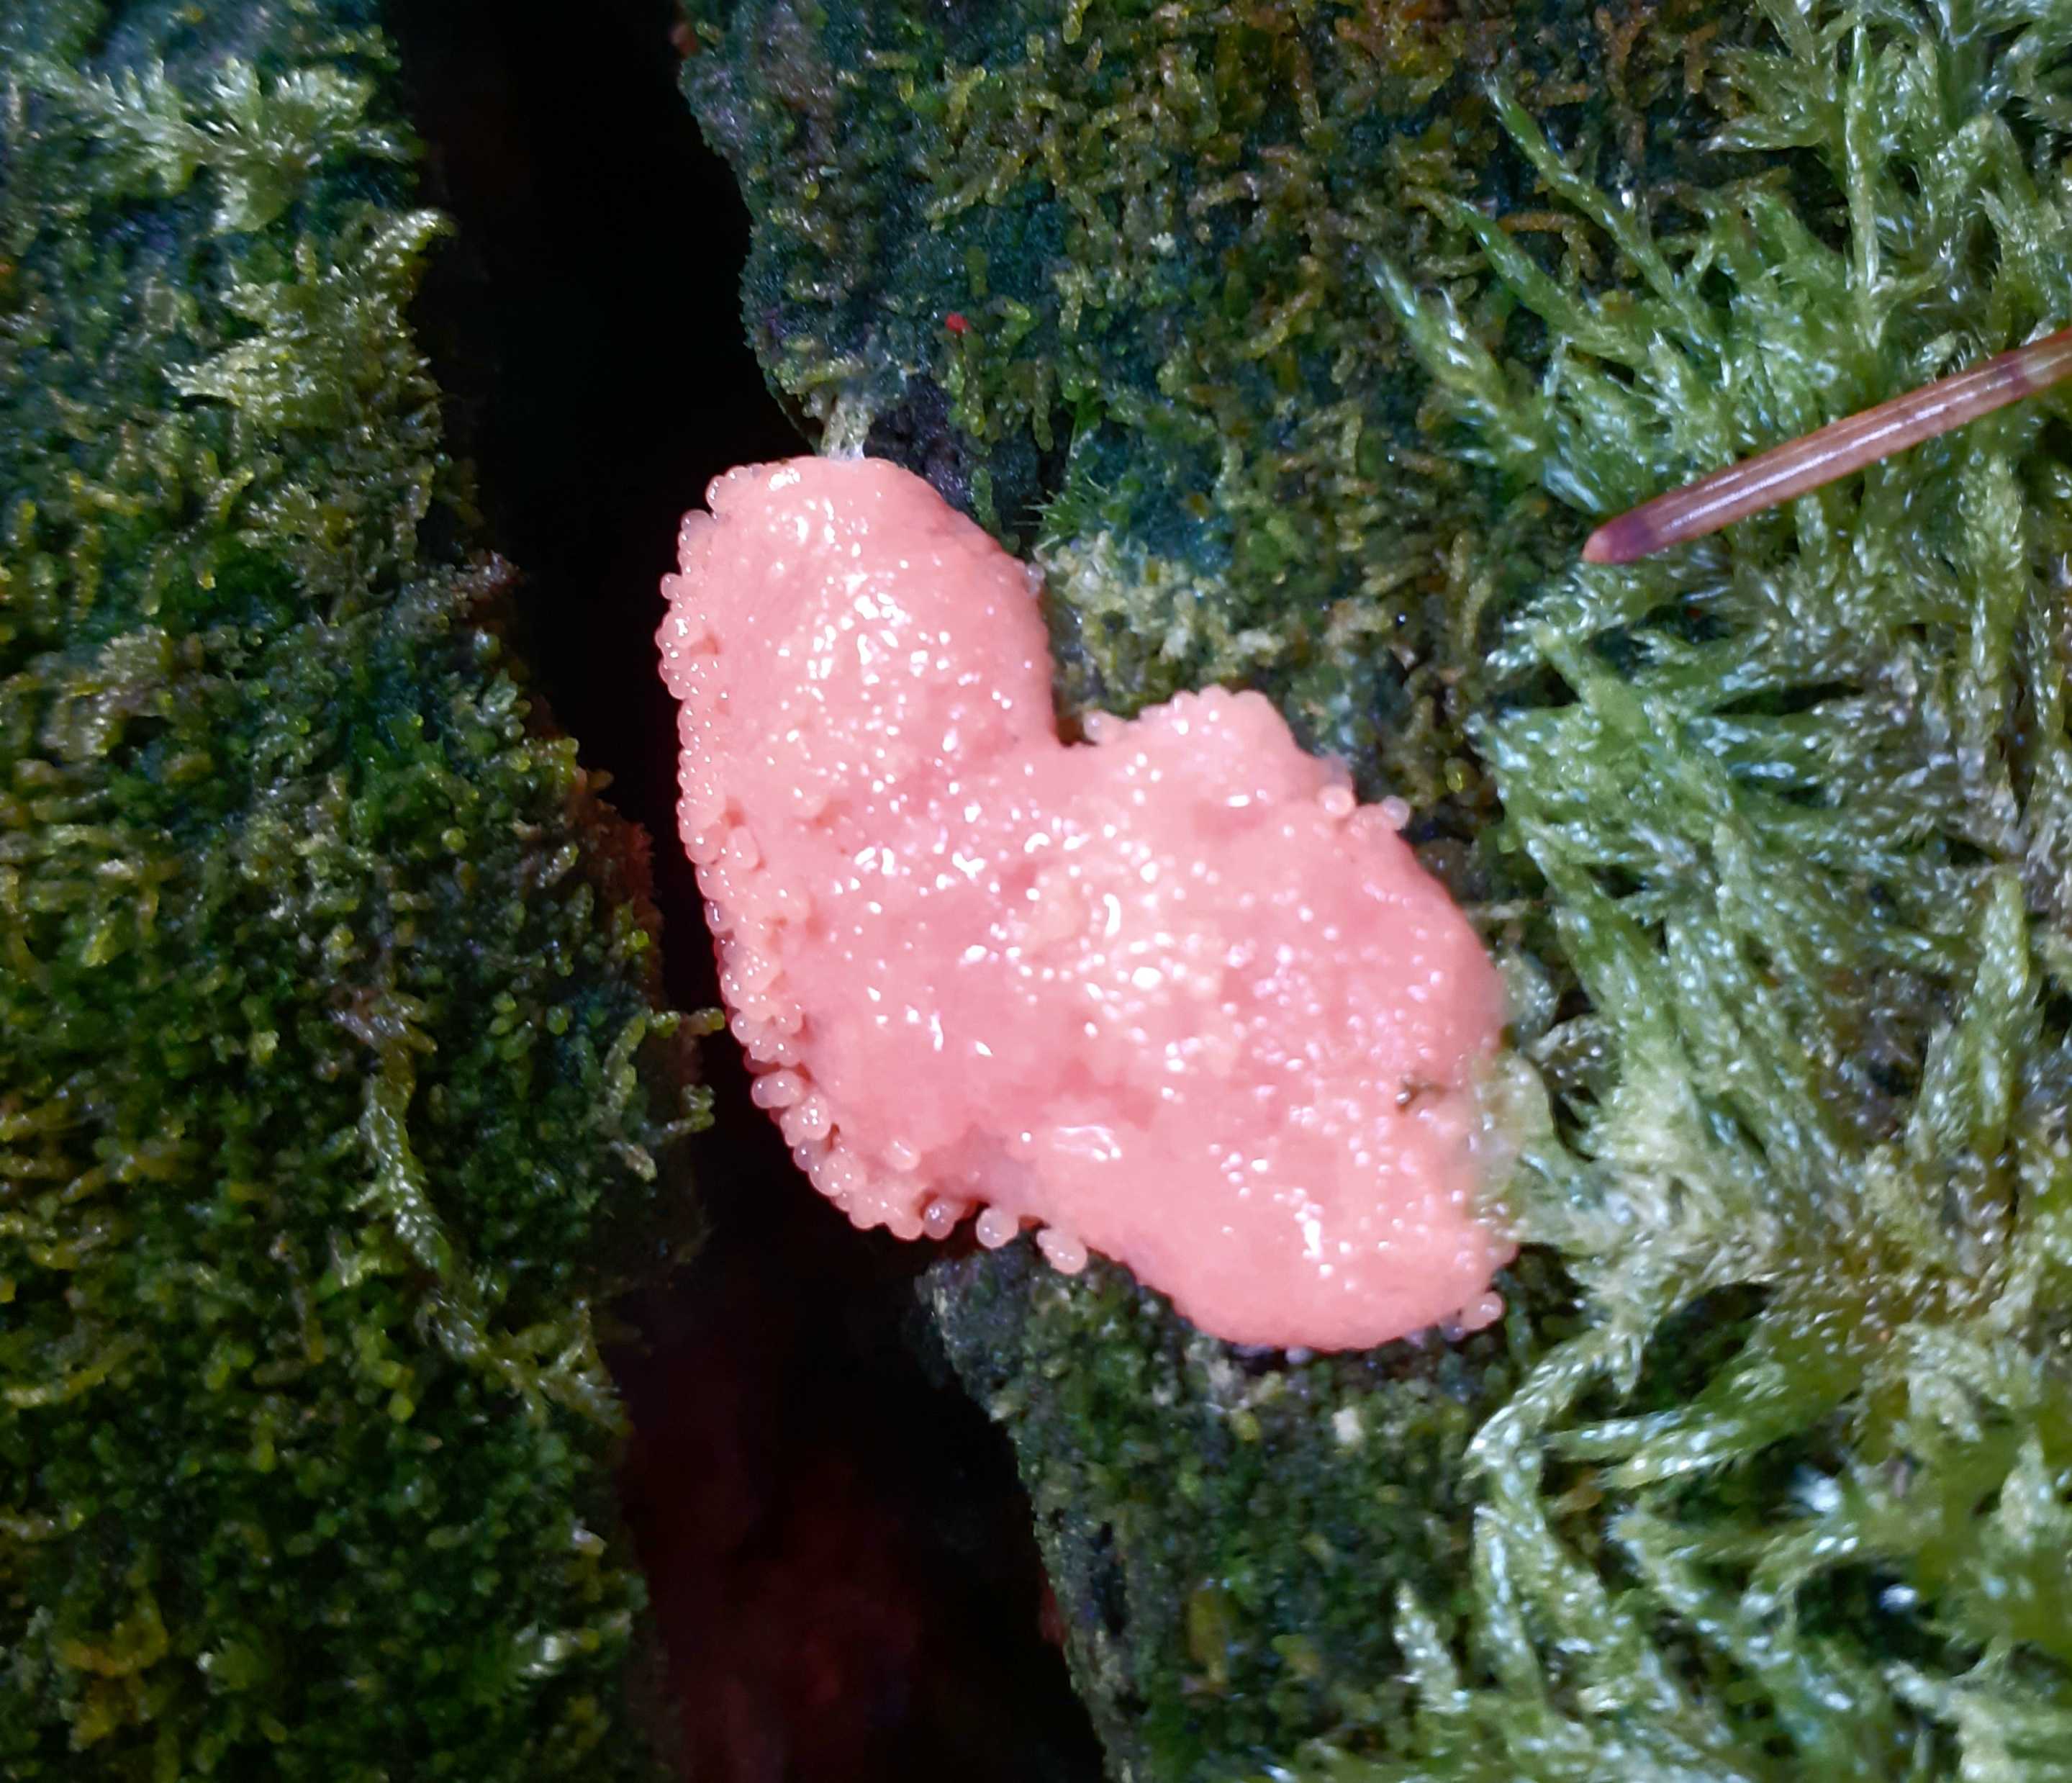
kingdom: Protozoa
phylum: Mycetozoa
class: Myxomycetes
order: Cribrariales
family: Tubiferaceae
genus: Tubifera
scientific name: Tubifera ferruginosa
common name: kanel-støvrør
